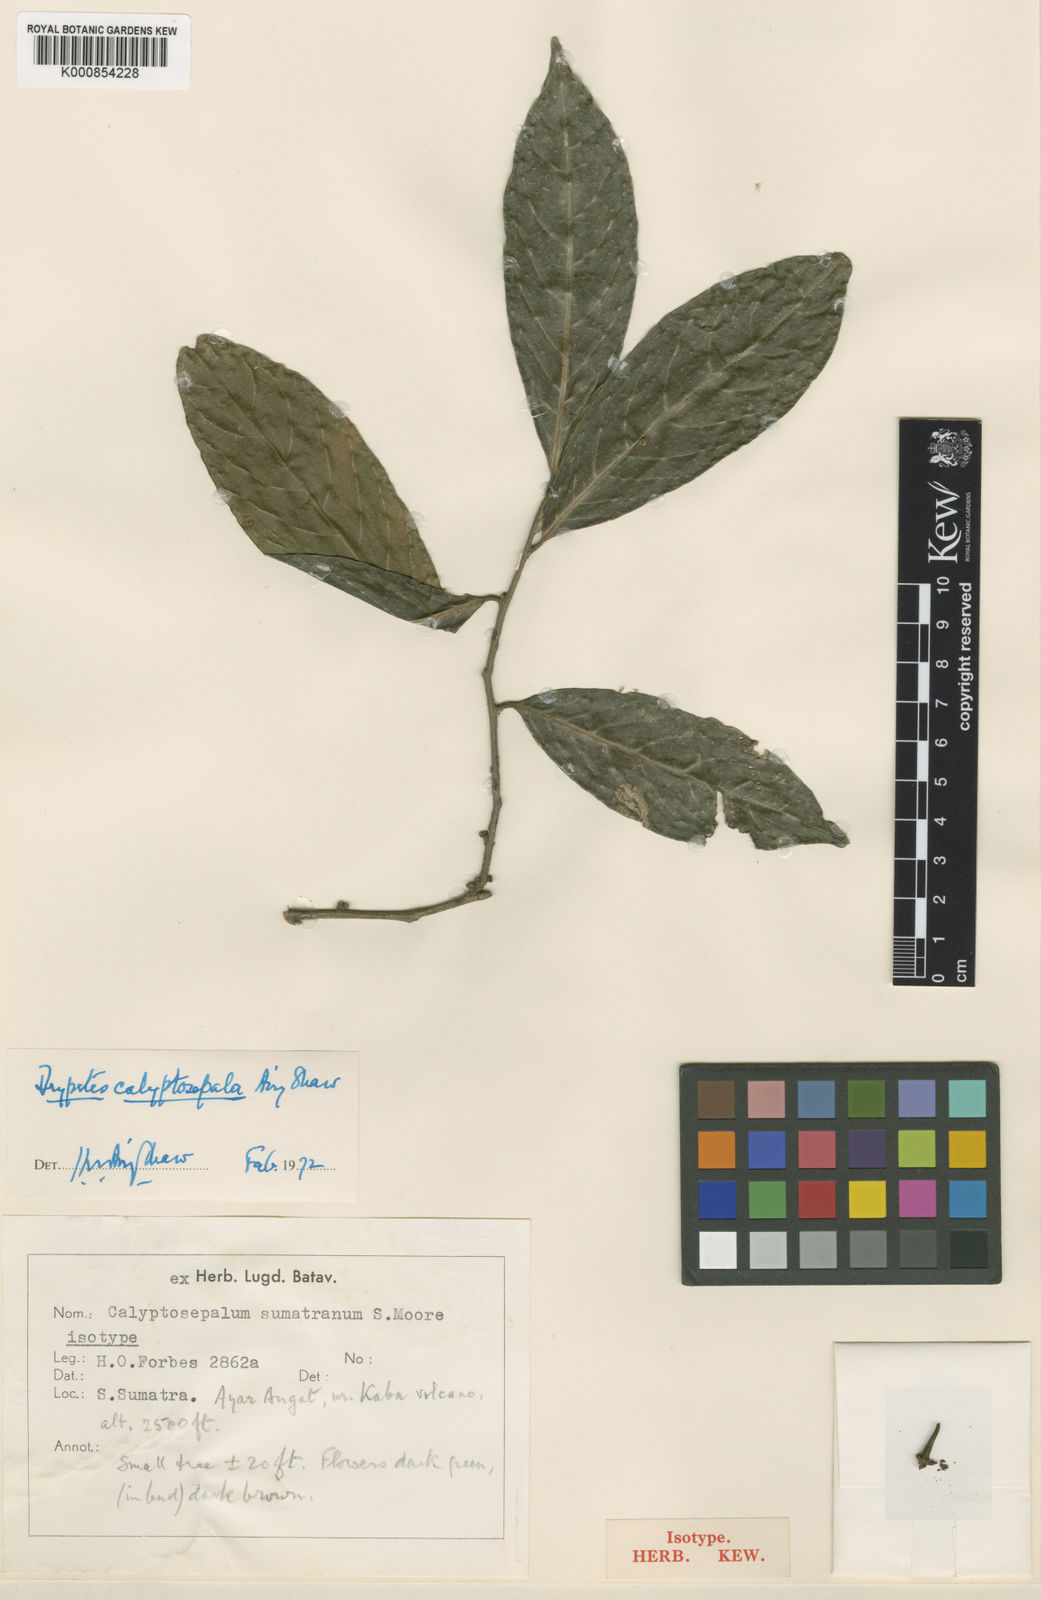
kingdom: Plantae
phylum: Tracheophyta
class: Magnoliopsida
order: Malpighiales
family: Putranjivaceae
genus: Drypetes
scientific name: Drypetes calyptosepala
